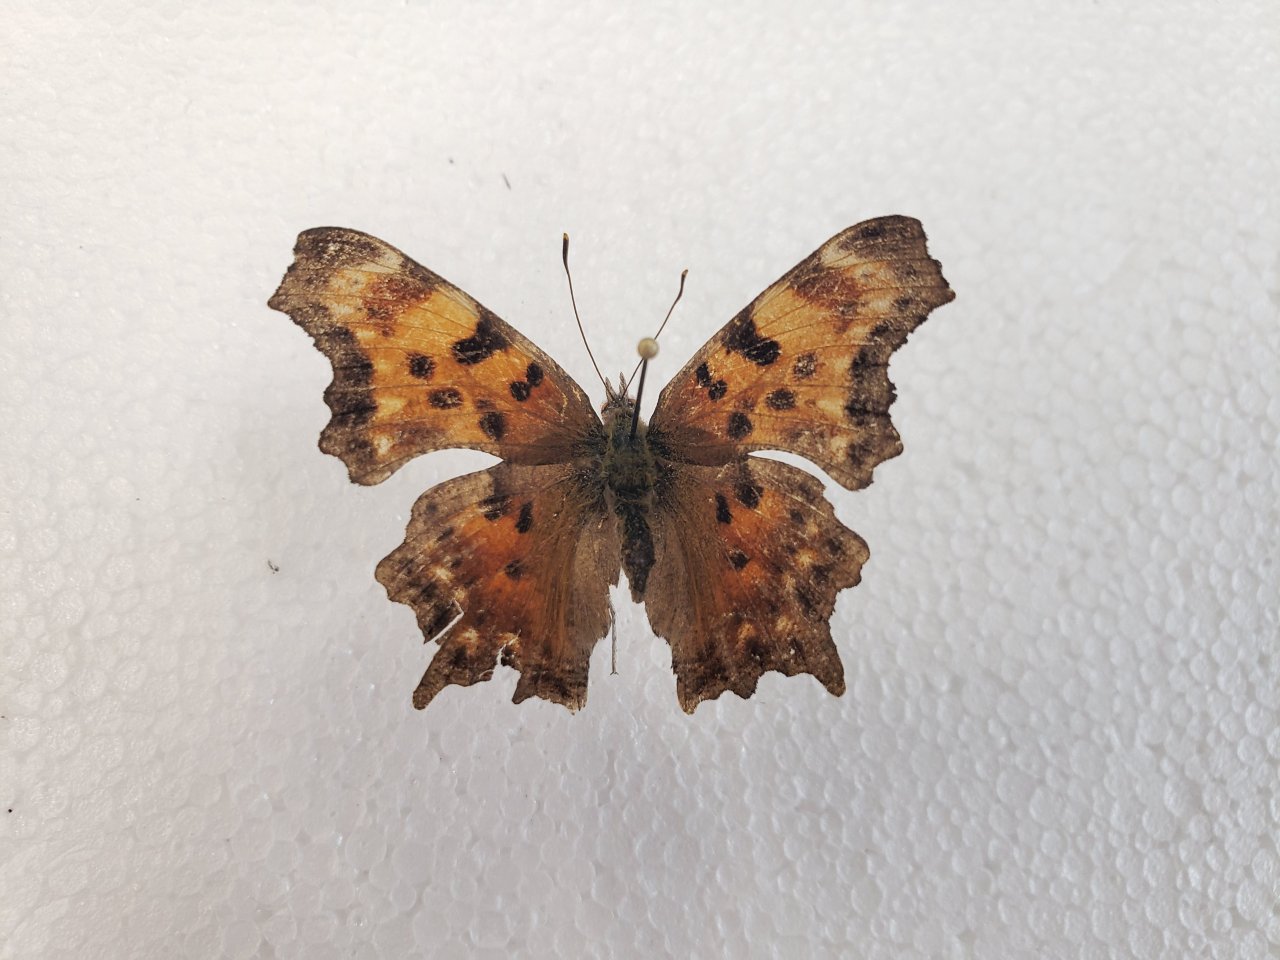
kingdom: Animalia
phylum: Arthropoda
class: Insecta
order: Lepidoptera
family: Nymphalidae
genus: Polygonia
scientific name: Polygonia faunus
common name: Green Comma
